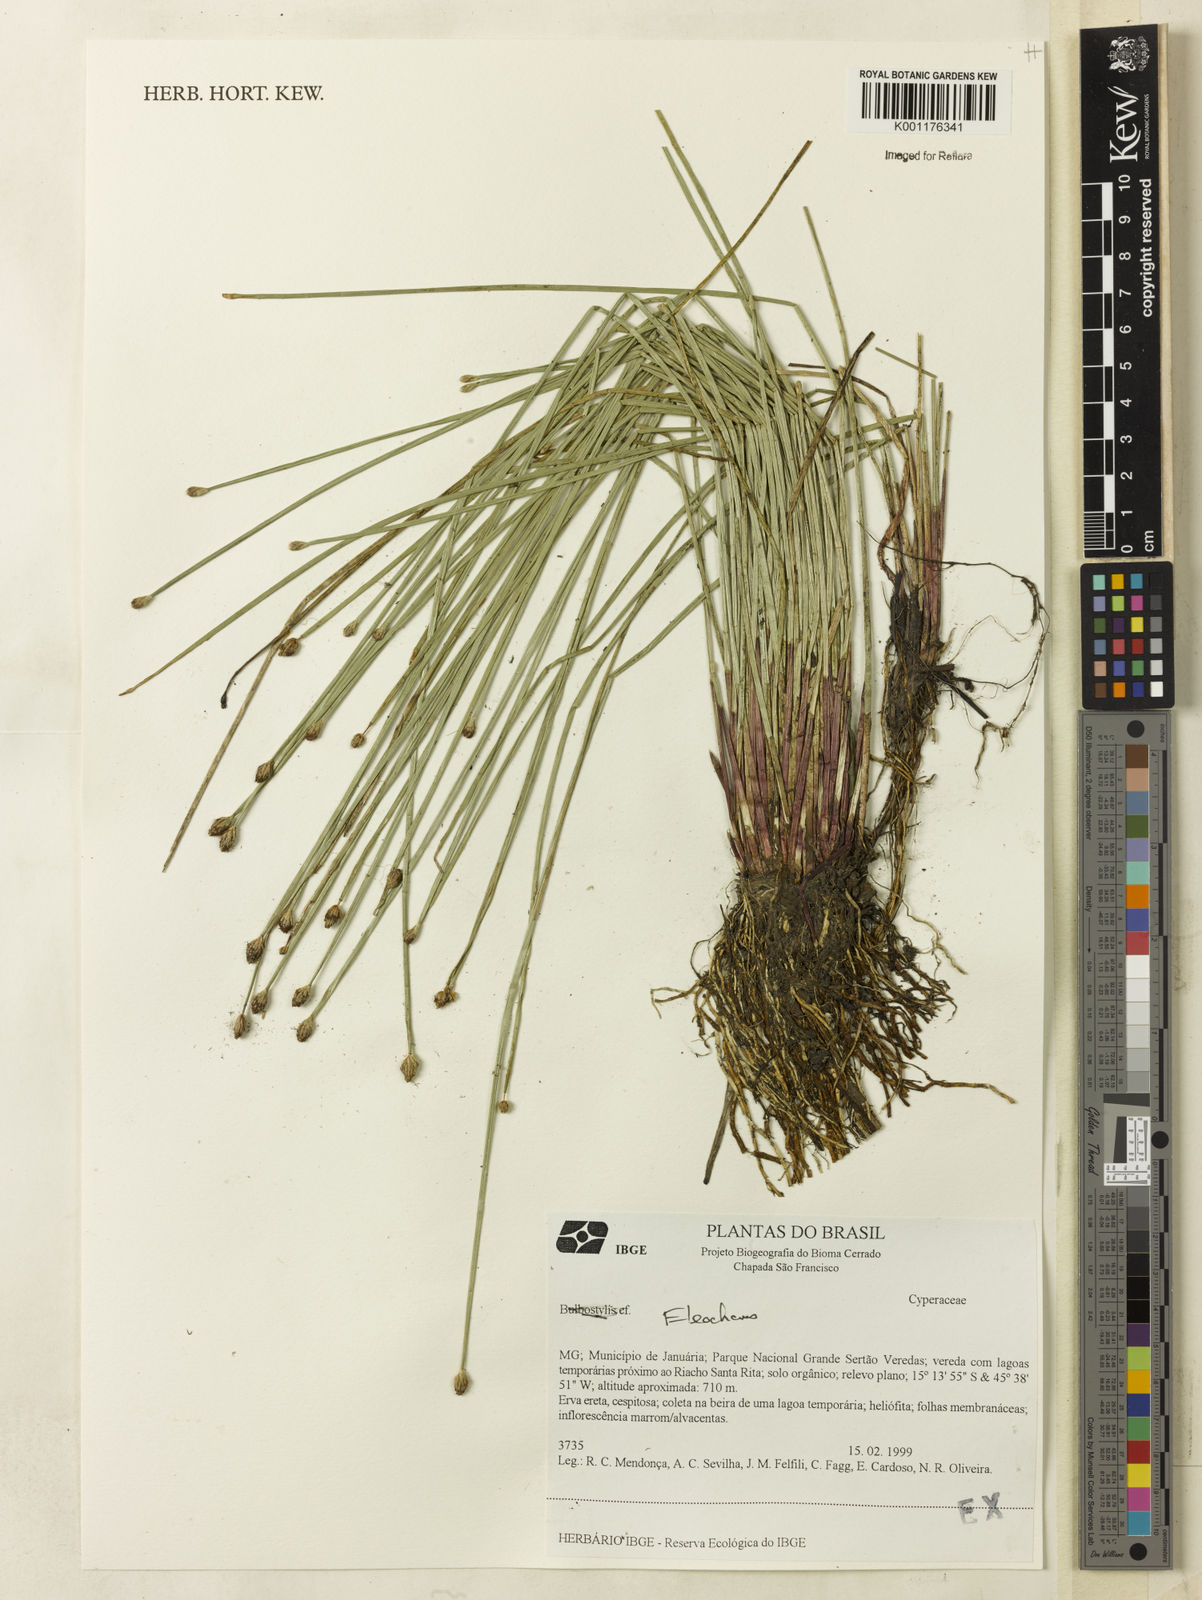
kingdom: Plantae
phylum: Tracheophyta
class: Liliopsida
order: Poales
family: Cyperaceae
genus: Eleocharis
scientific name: Eleocharis
